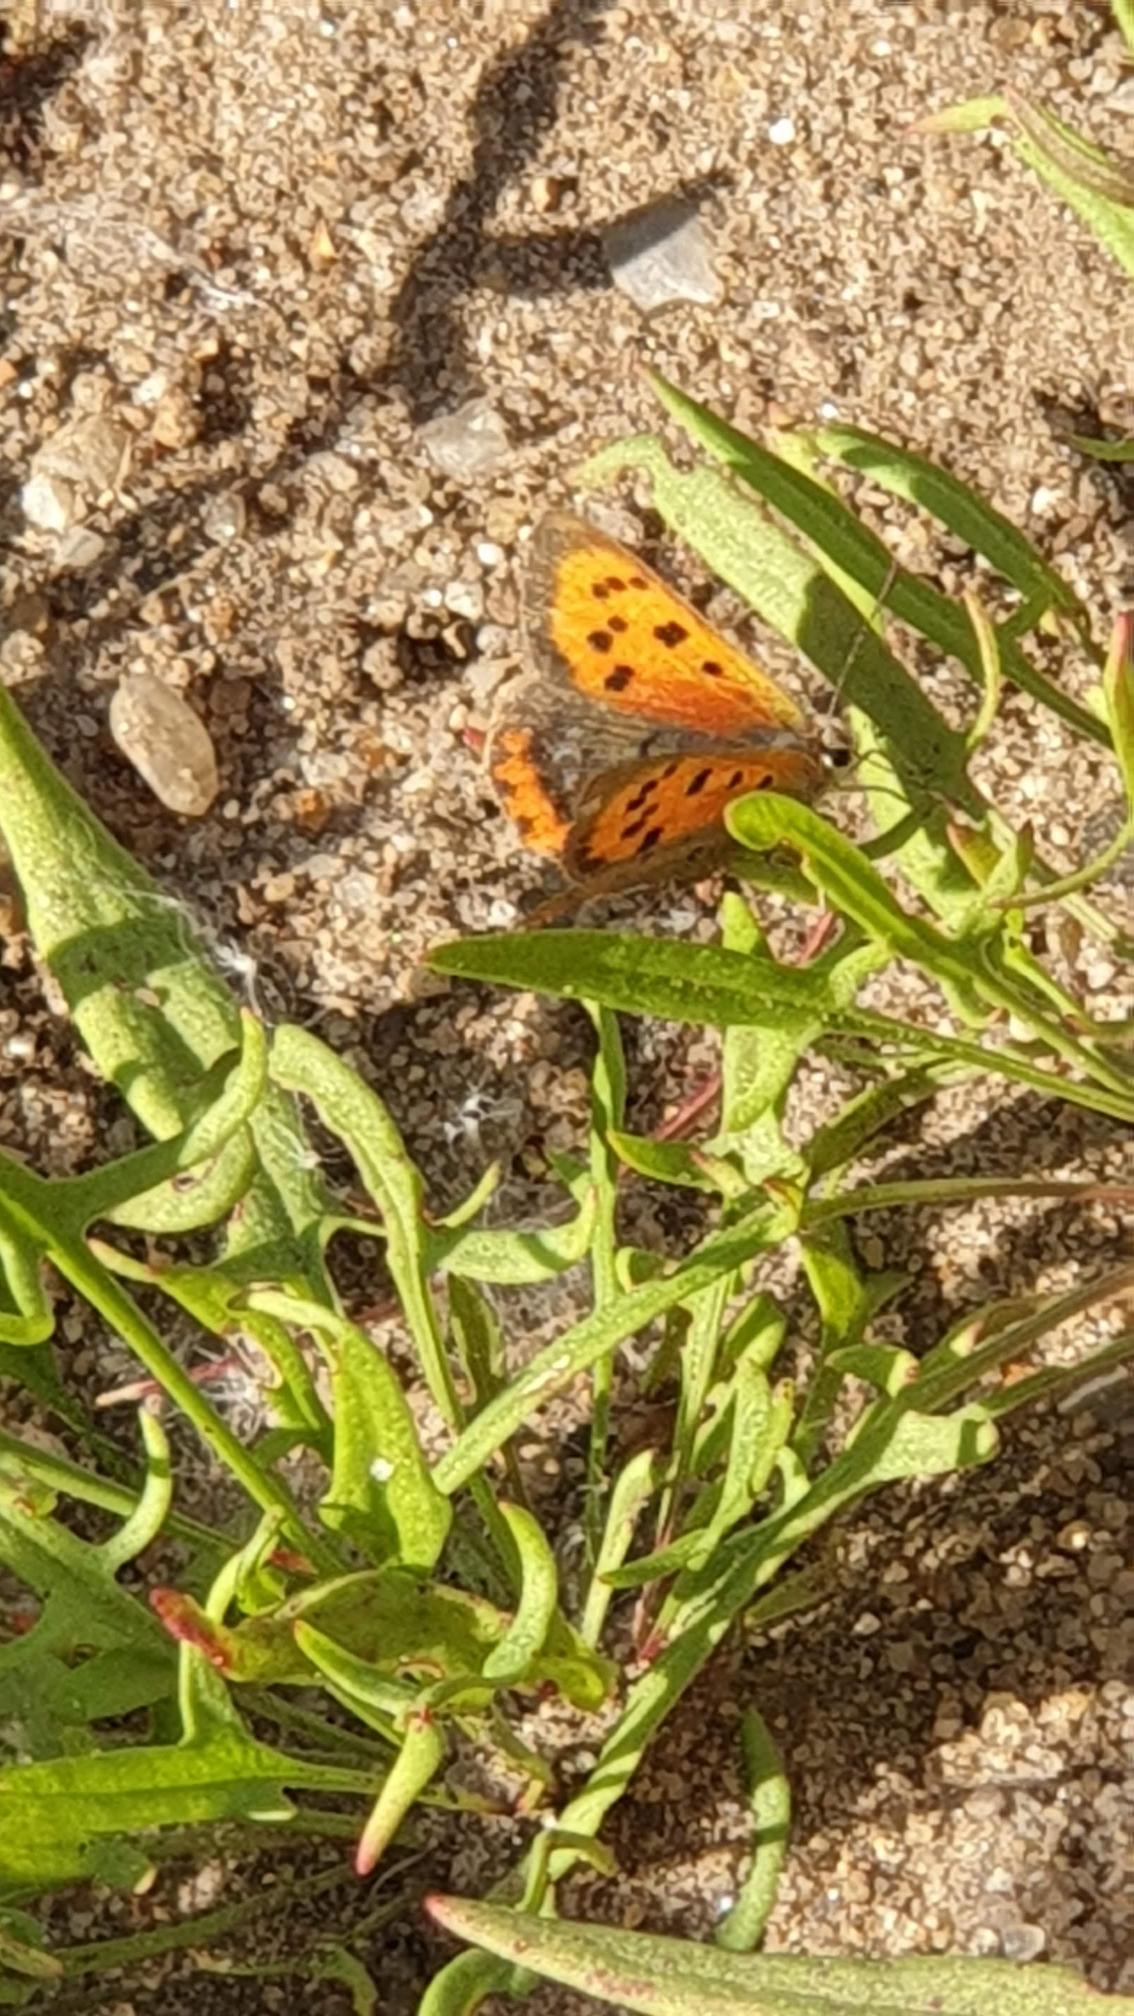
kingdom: Animalia
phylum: Arthropoda
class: Insecta
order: Lepidoptera
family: Lycaenidae
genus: Lycaena
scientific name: Lycaena phlaeas
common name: Lille ildfugl
